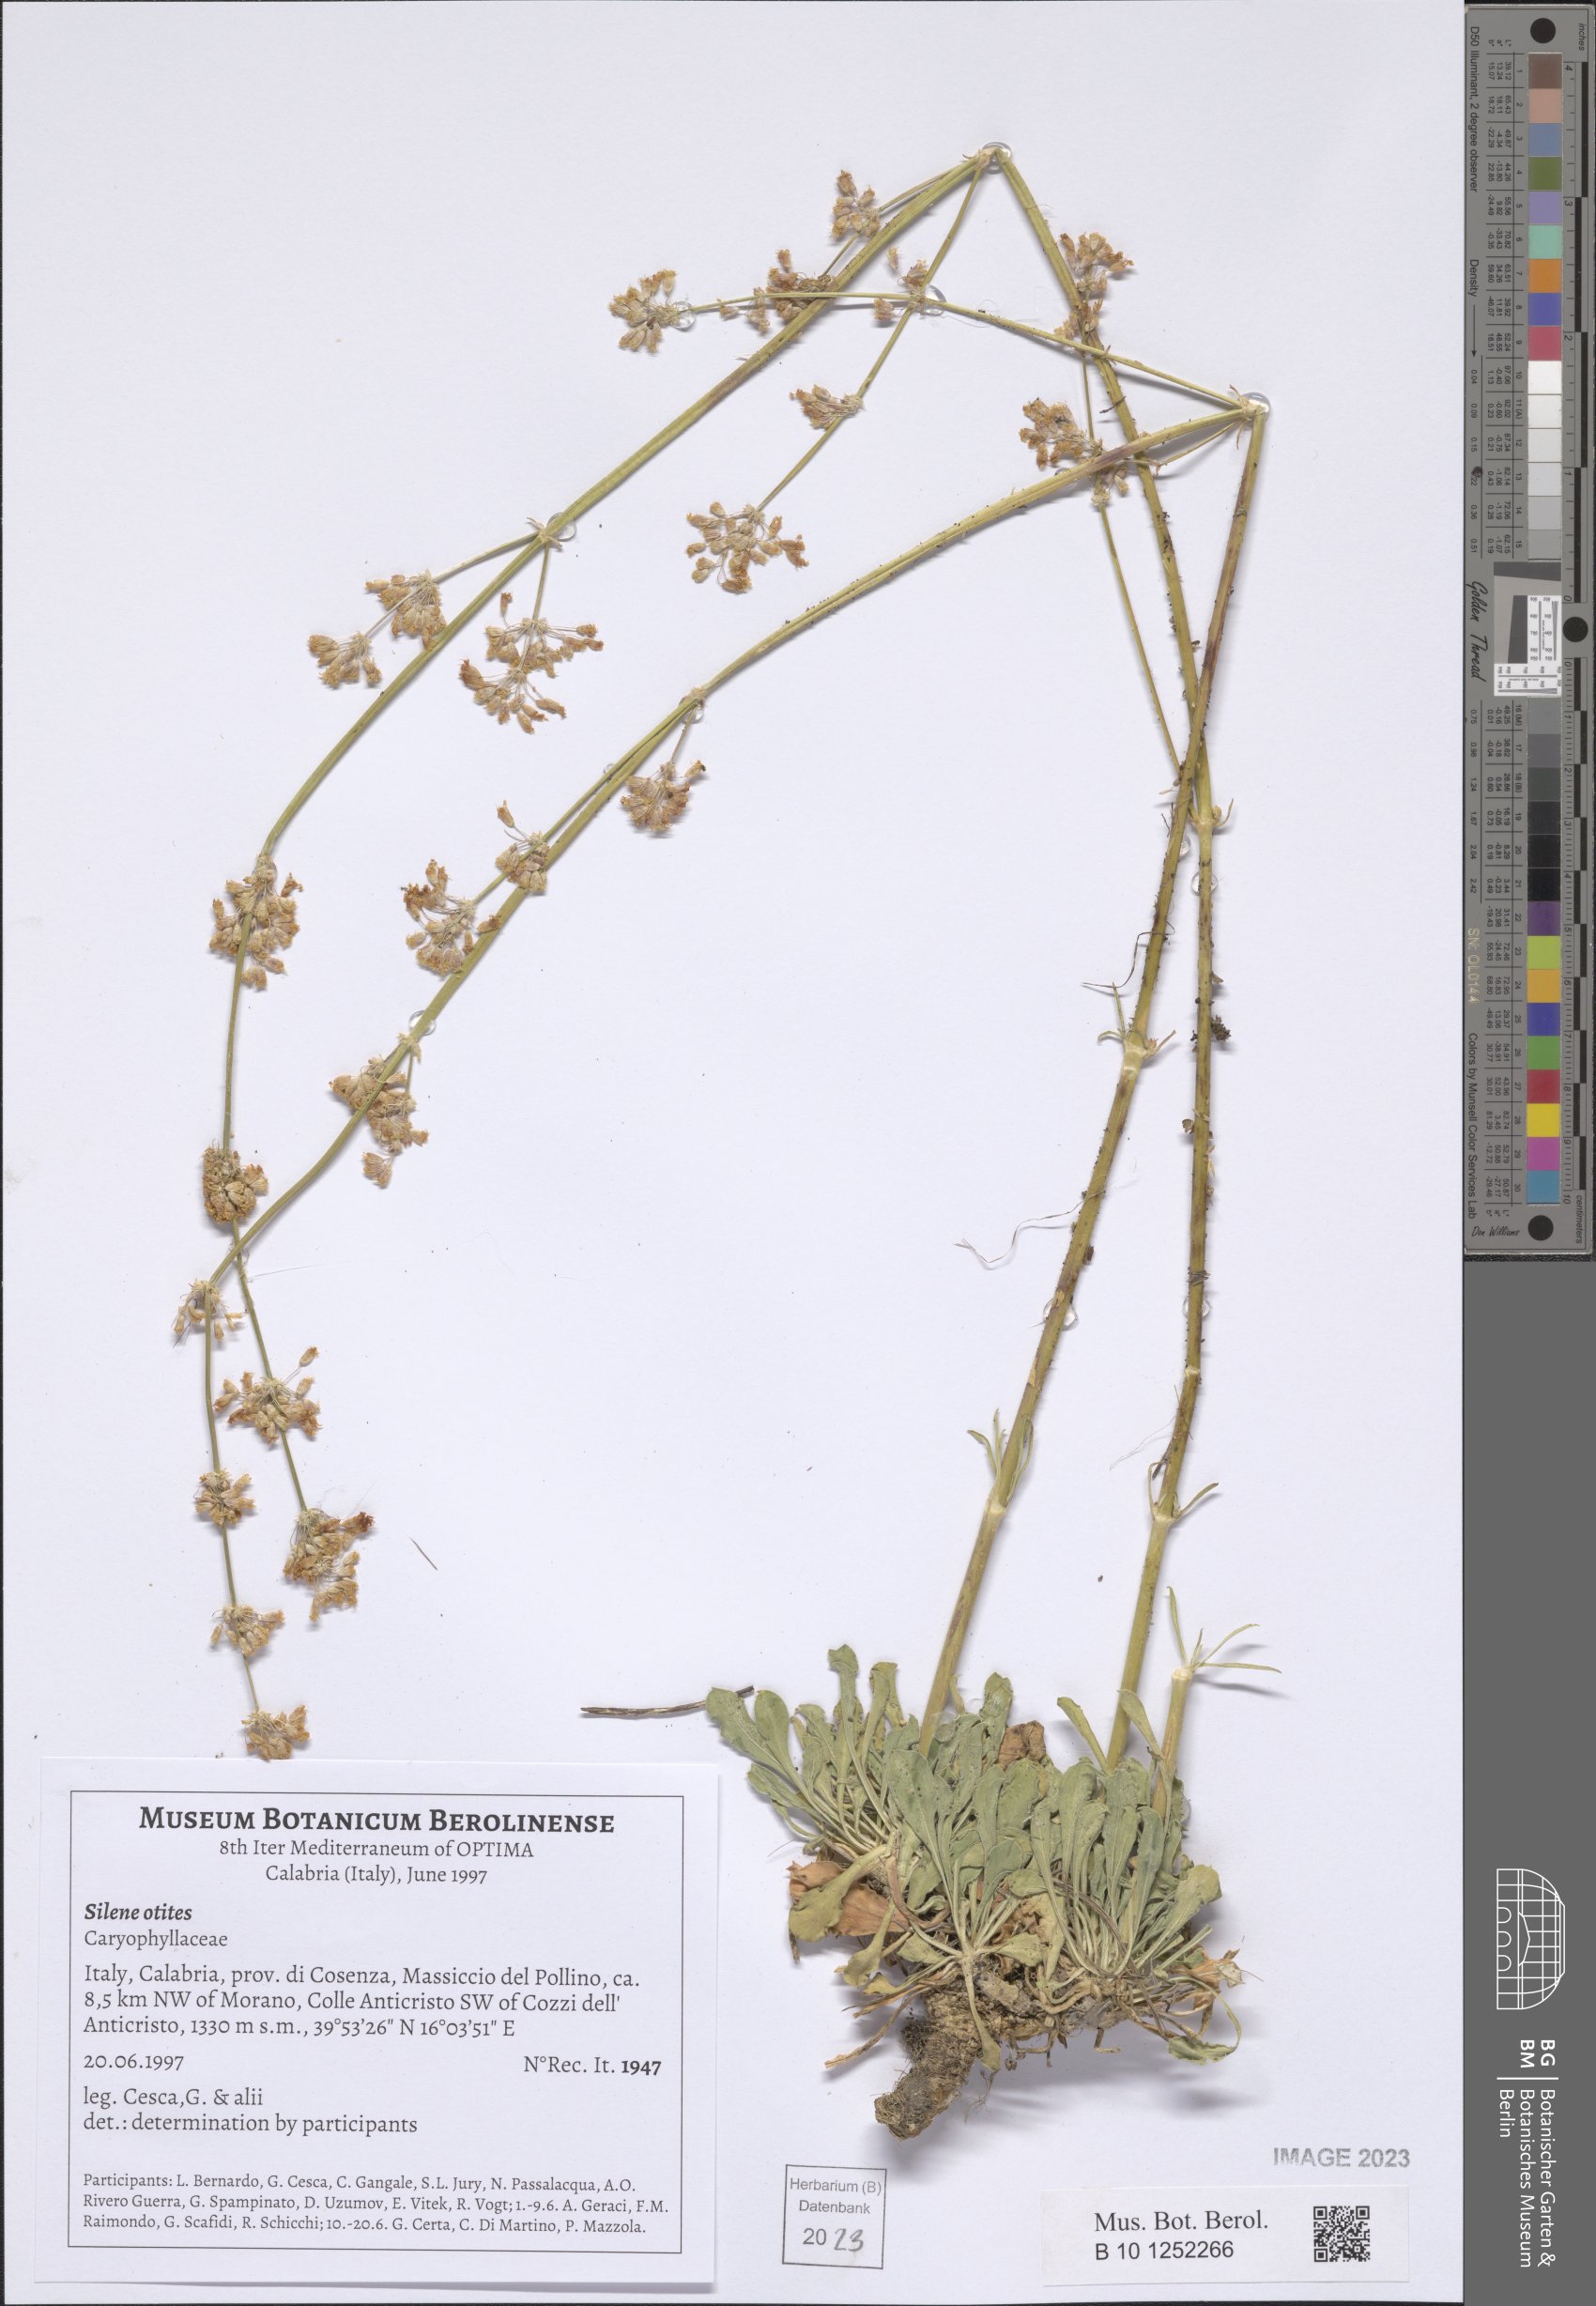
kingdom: Plantae
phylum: Tracheophyta
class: Magnoliopsida
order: Caryophyllales
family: Caryophyllaceae
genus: Silene
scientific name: Silene otites
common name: Spanish catchfly
